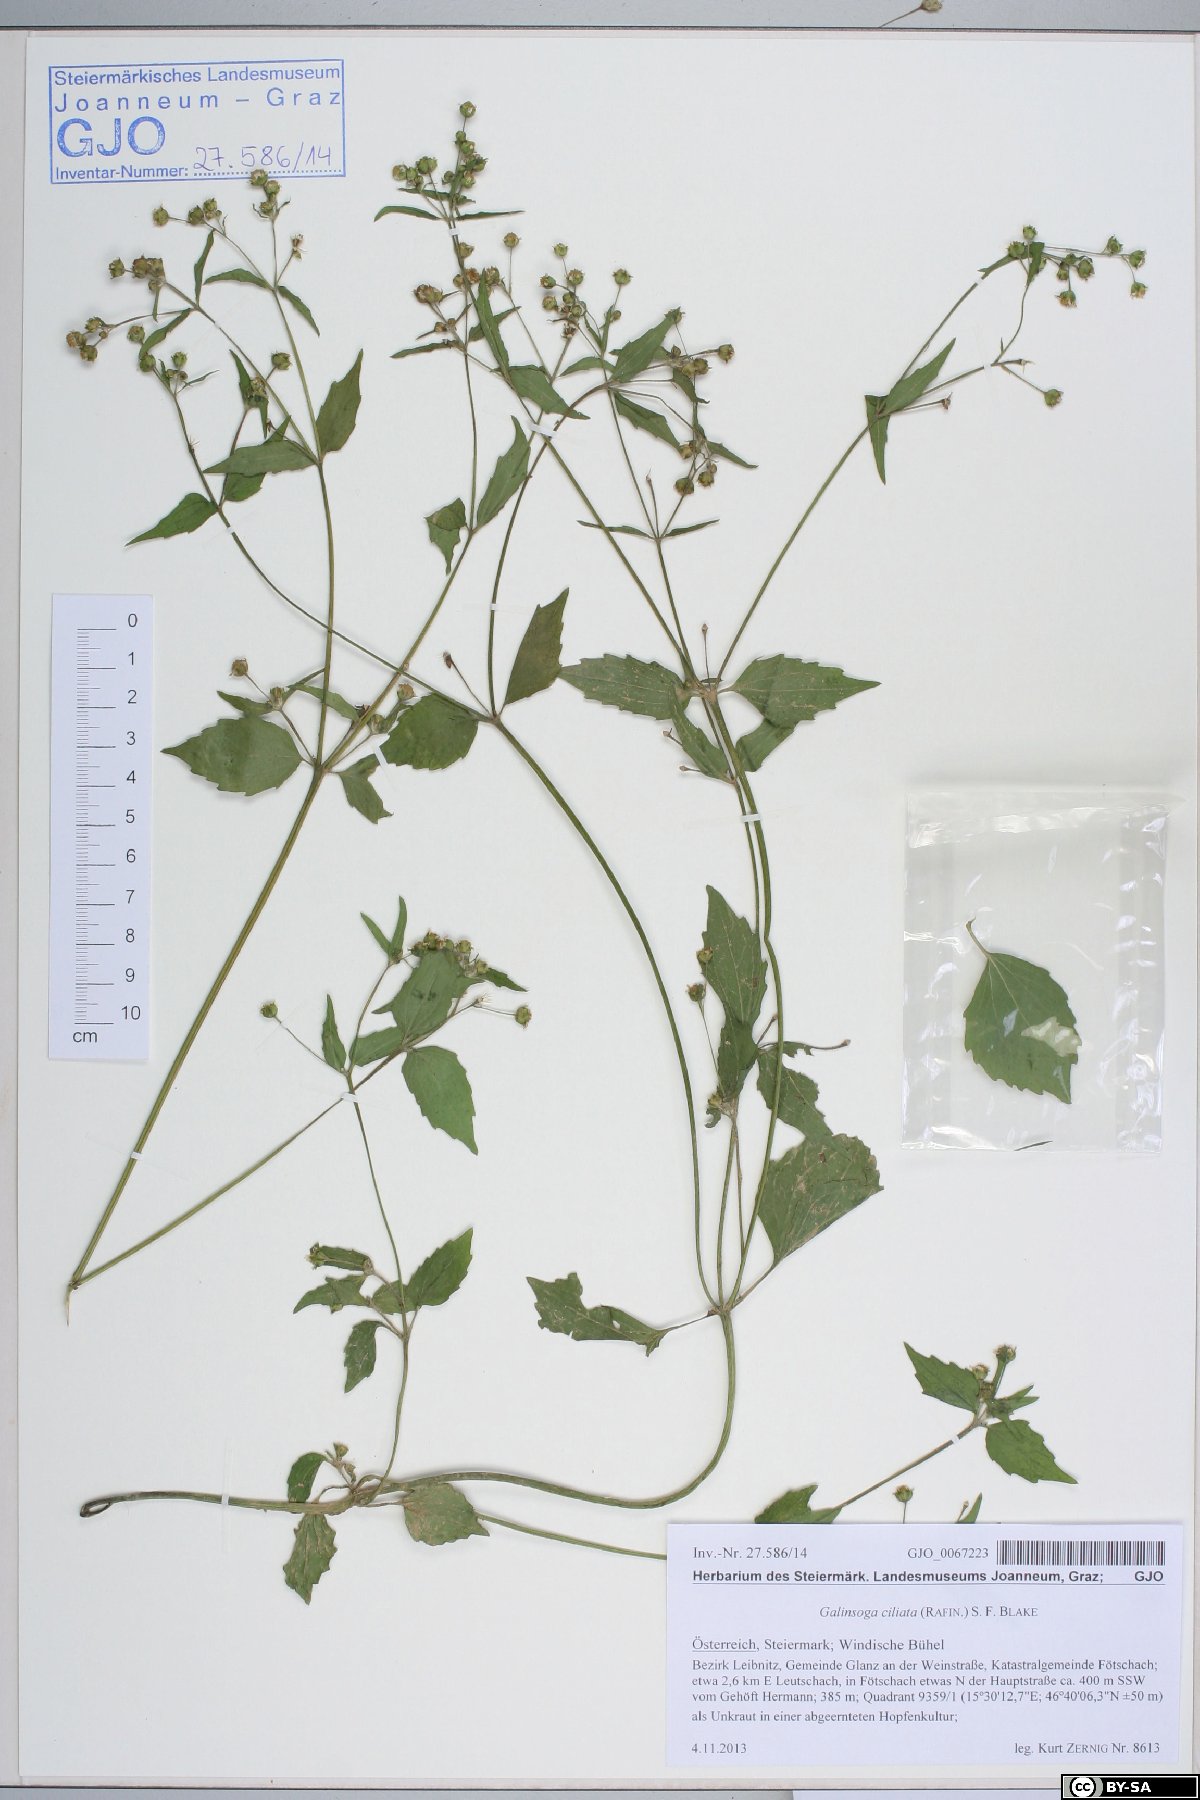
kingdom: Plantae
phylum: Tracheophyta
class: Magnoliopsida
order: Asterales
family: Asteraceae
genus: Galinsoga
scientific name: Galinsoga quadriradiata
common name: Shaggy soldier
